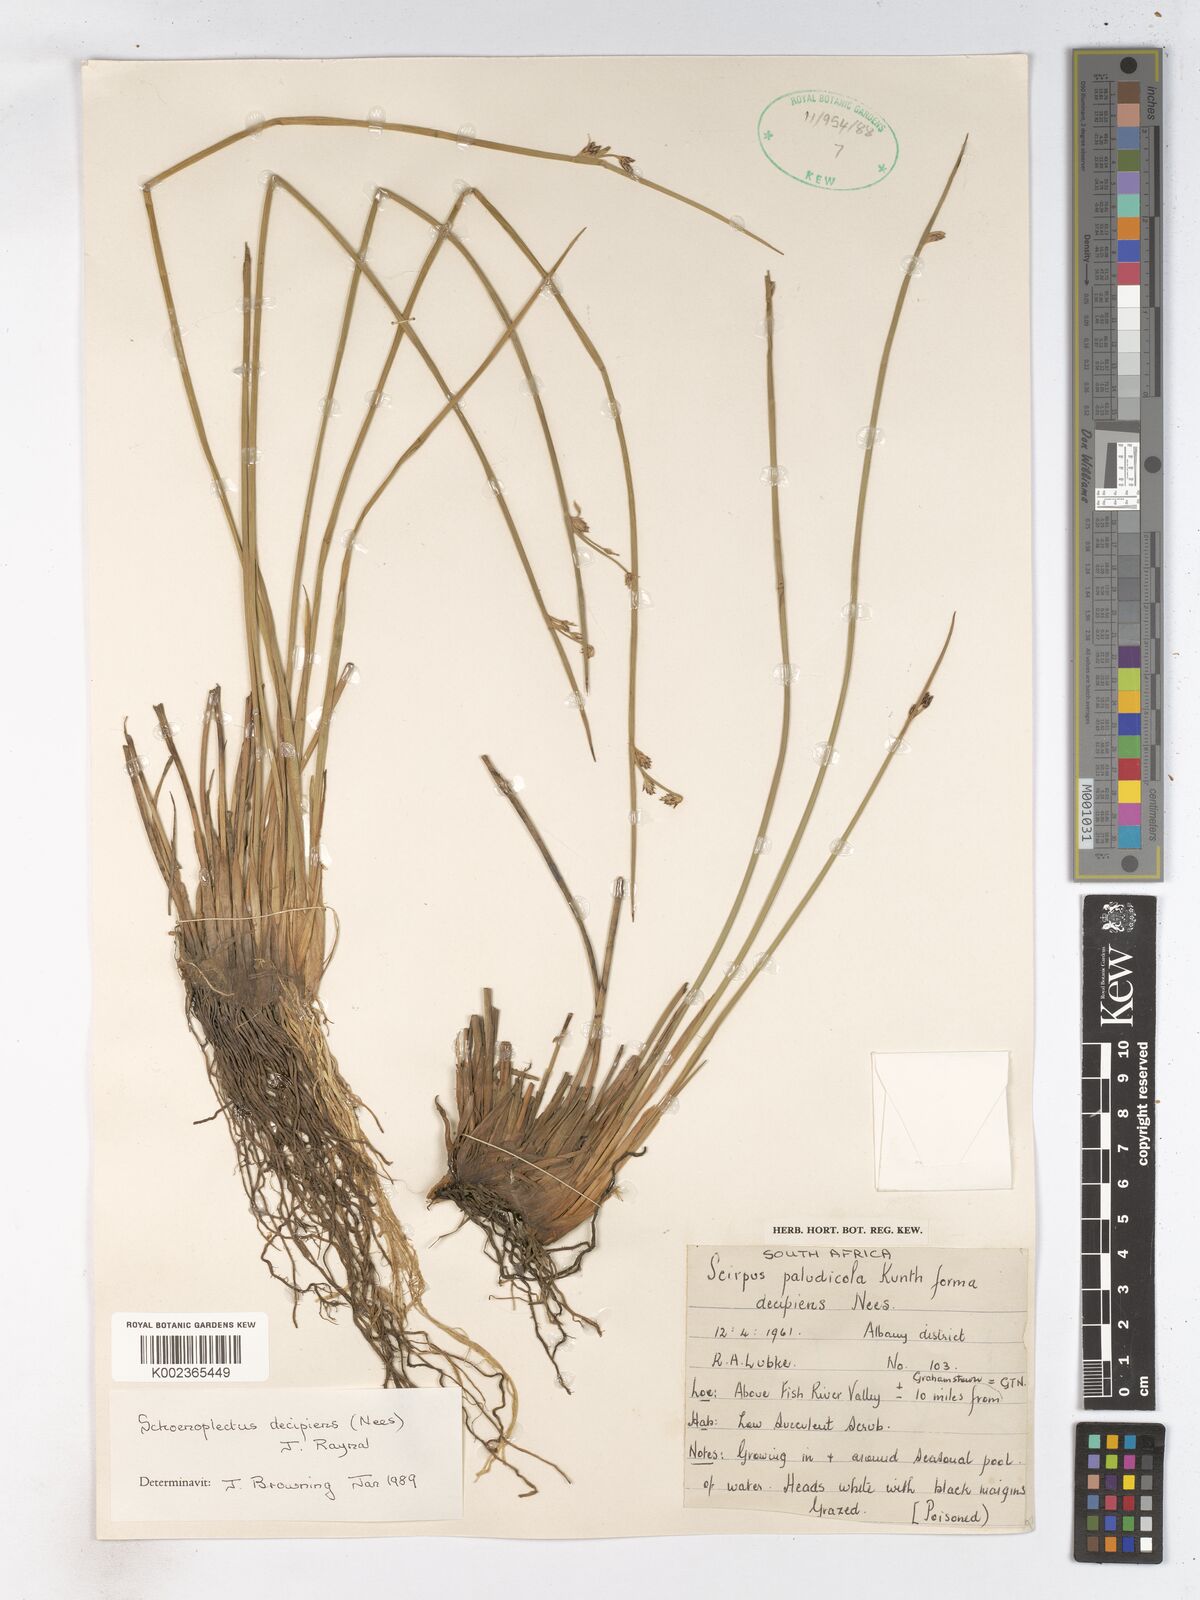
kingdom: Plantae
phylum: Tracheophyta
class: Liliopsida
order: Poales
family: Cyperaceae
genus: Schoenoplectiella
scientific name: Schoenoplectiella paludicola
